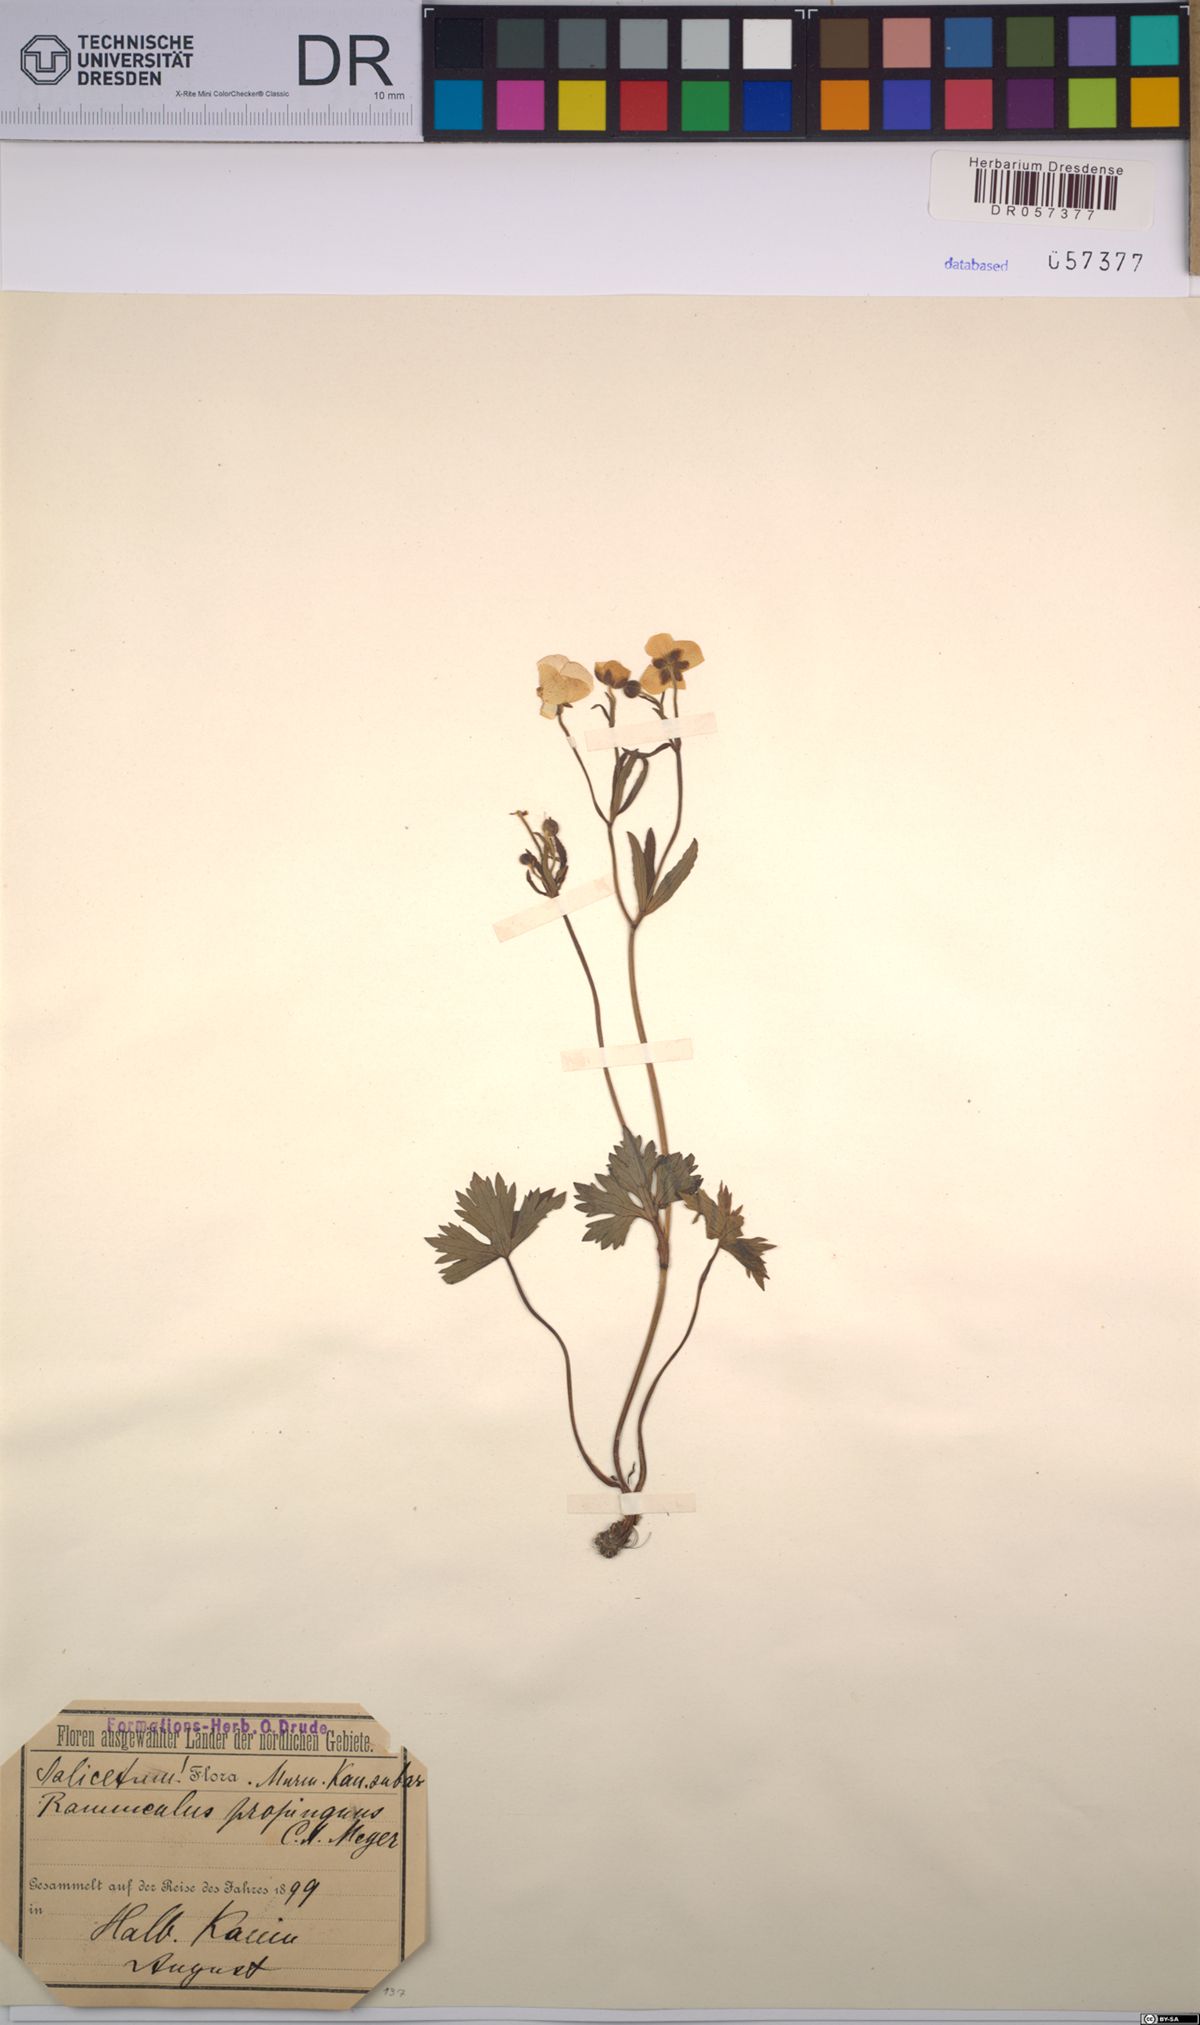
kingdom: Plantae
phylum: Tracheophyta
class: Magnoliopsida
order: Ranunculales
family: Ranunculaceae
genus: Ranunculus
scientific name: Ranunculus propinquus
